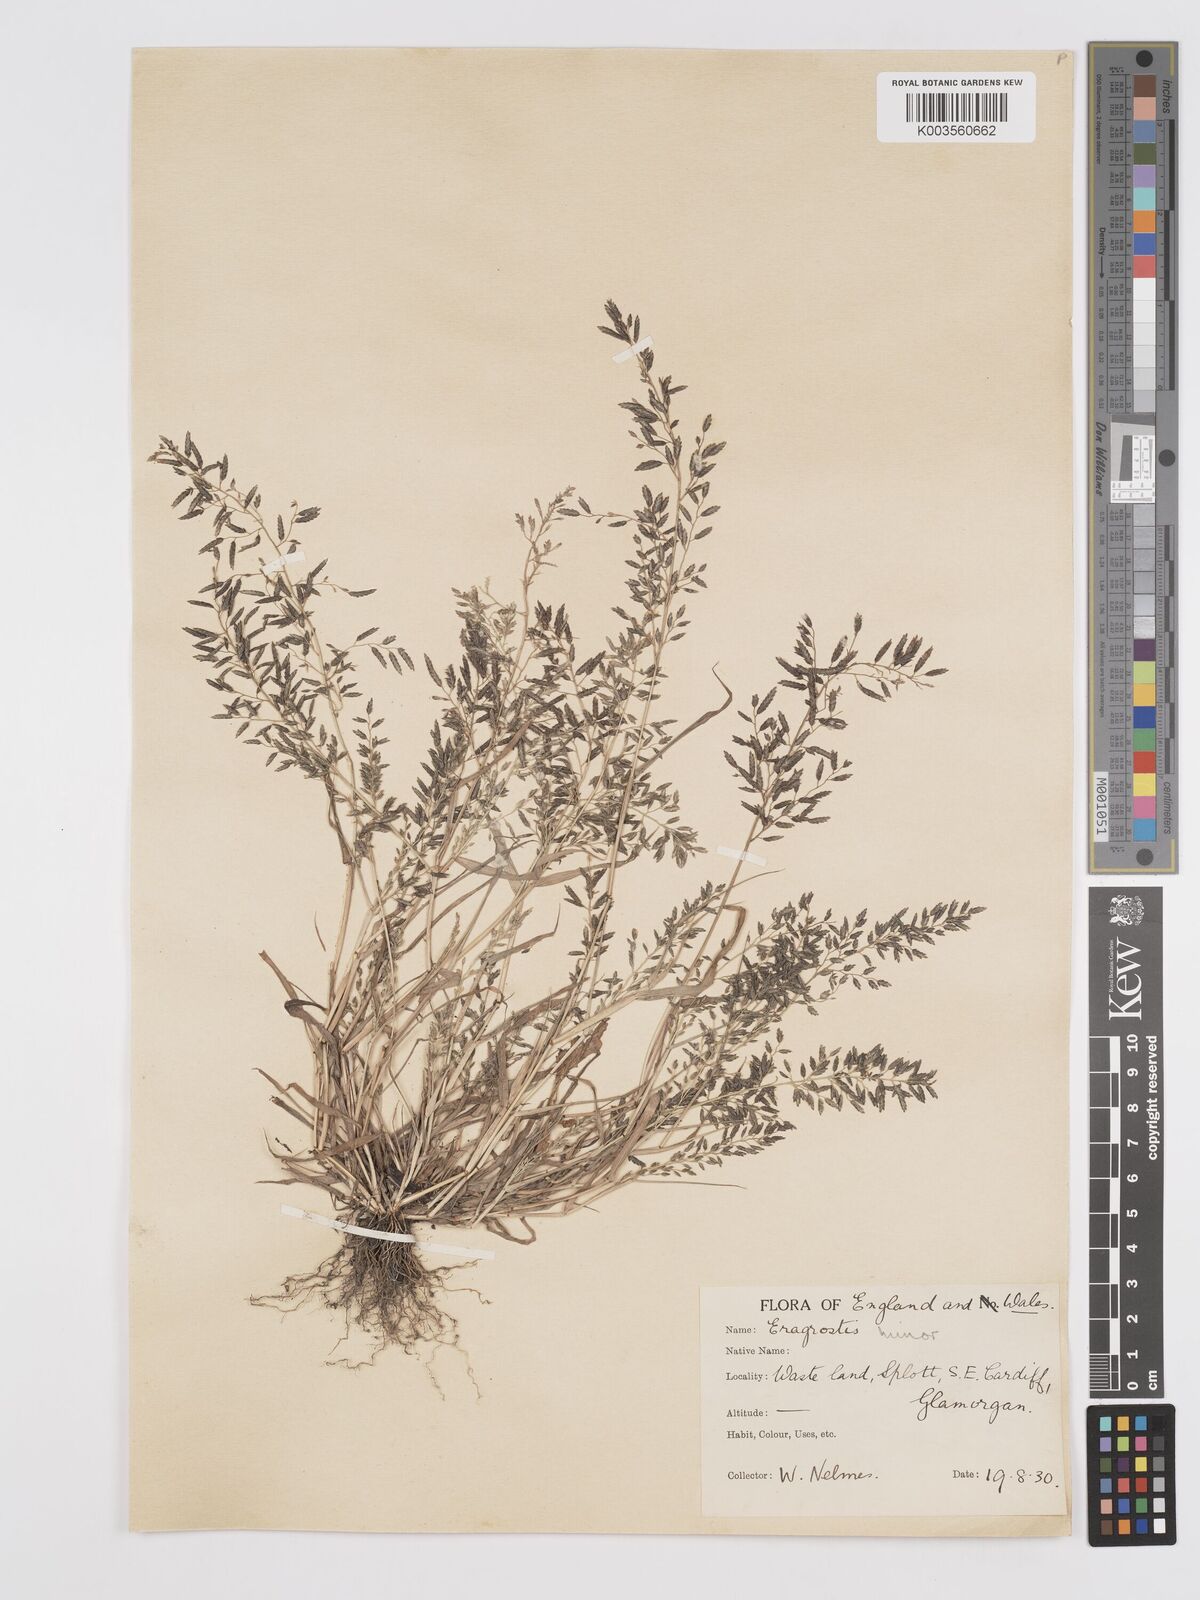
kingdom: Plantae
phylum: Tracheophyta
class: Liliopsida
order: Poales
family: Poaceae
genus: Eragrostis
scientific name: Eragrostis minor
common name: Small love-grass
